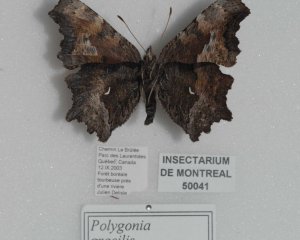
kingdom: Animalia
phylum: Arthropoda
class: Insecta
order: Lepidoptera
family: Nymphalidae
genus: Polygonia
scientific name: Polygonia gracilis
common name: Hoary Comma
